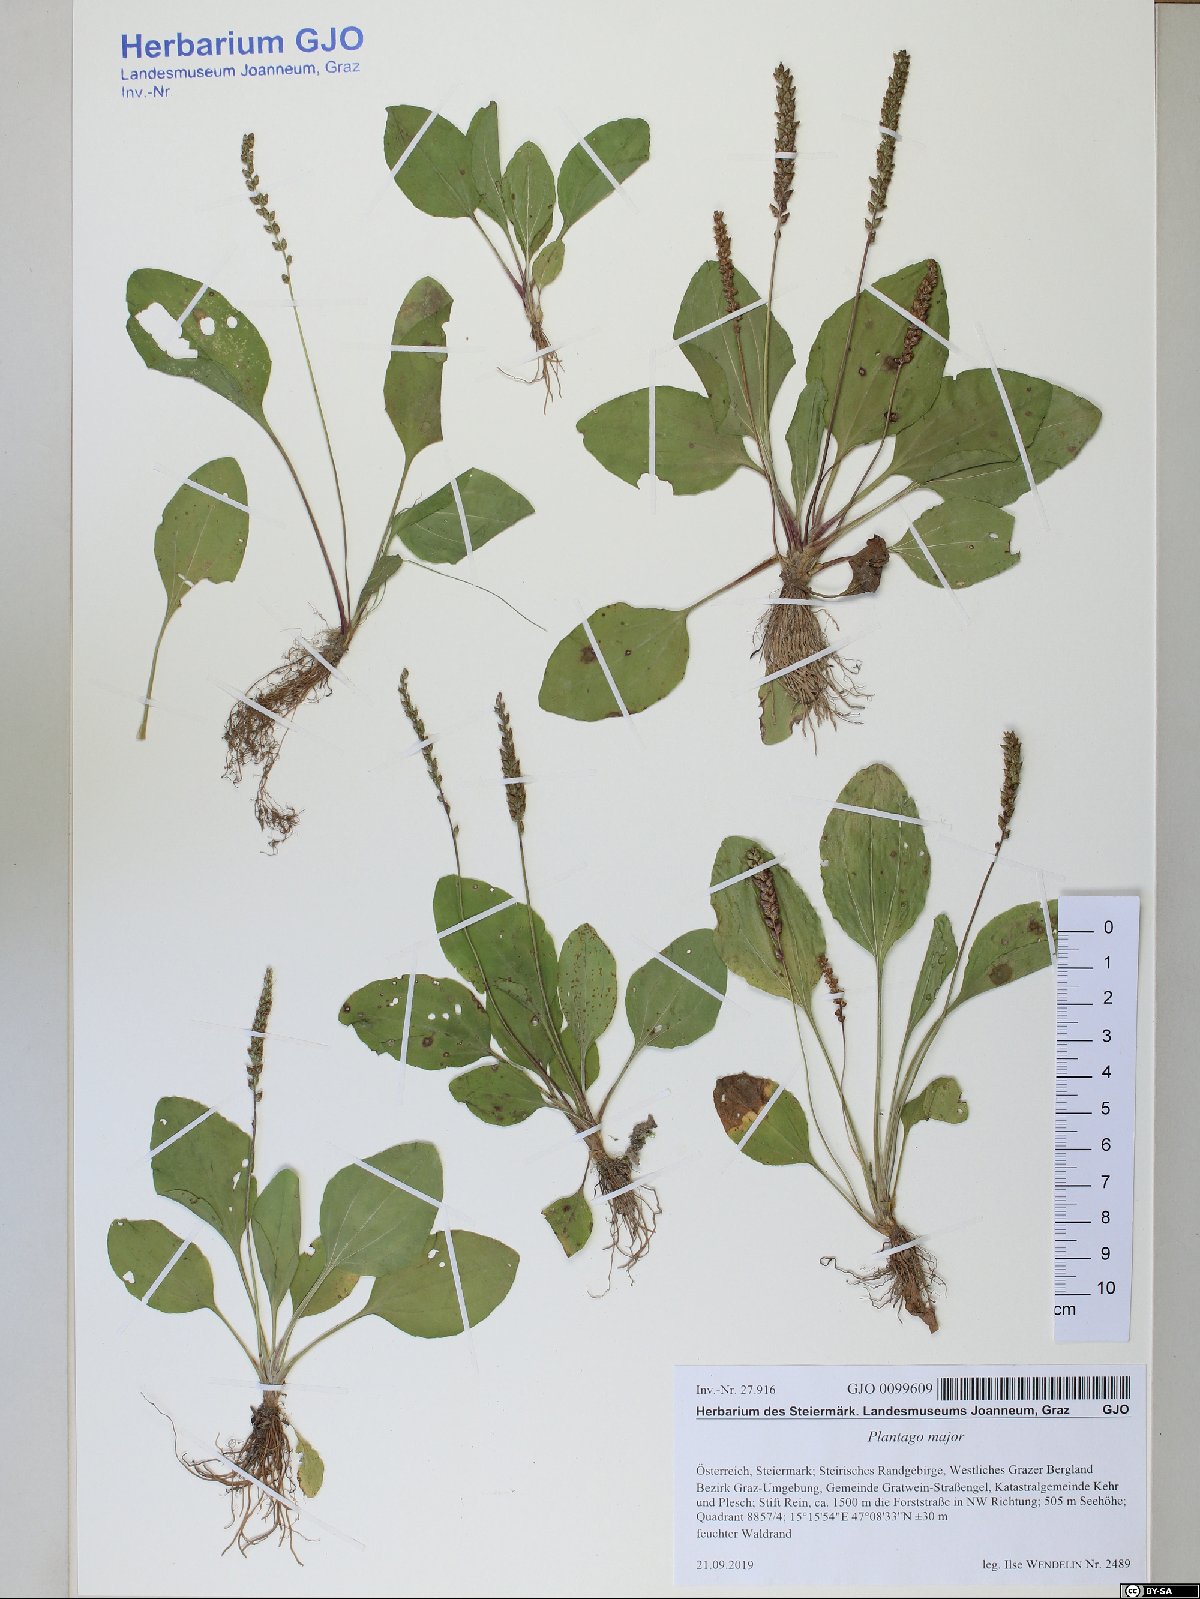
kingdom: Plantae
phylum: Tracheophyta
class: Magnoliopsida
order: Lamiales
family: Plantaginaceae
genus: Plantago
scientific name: Plantago major
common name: Common plantain
